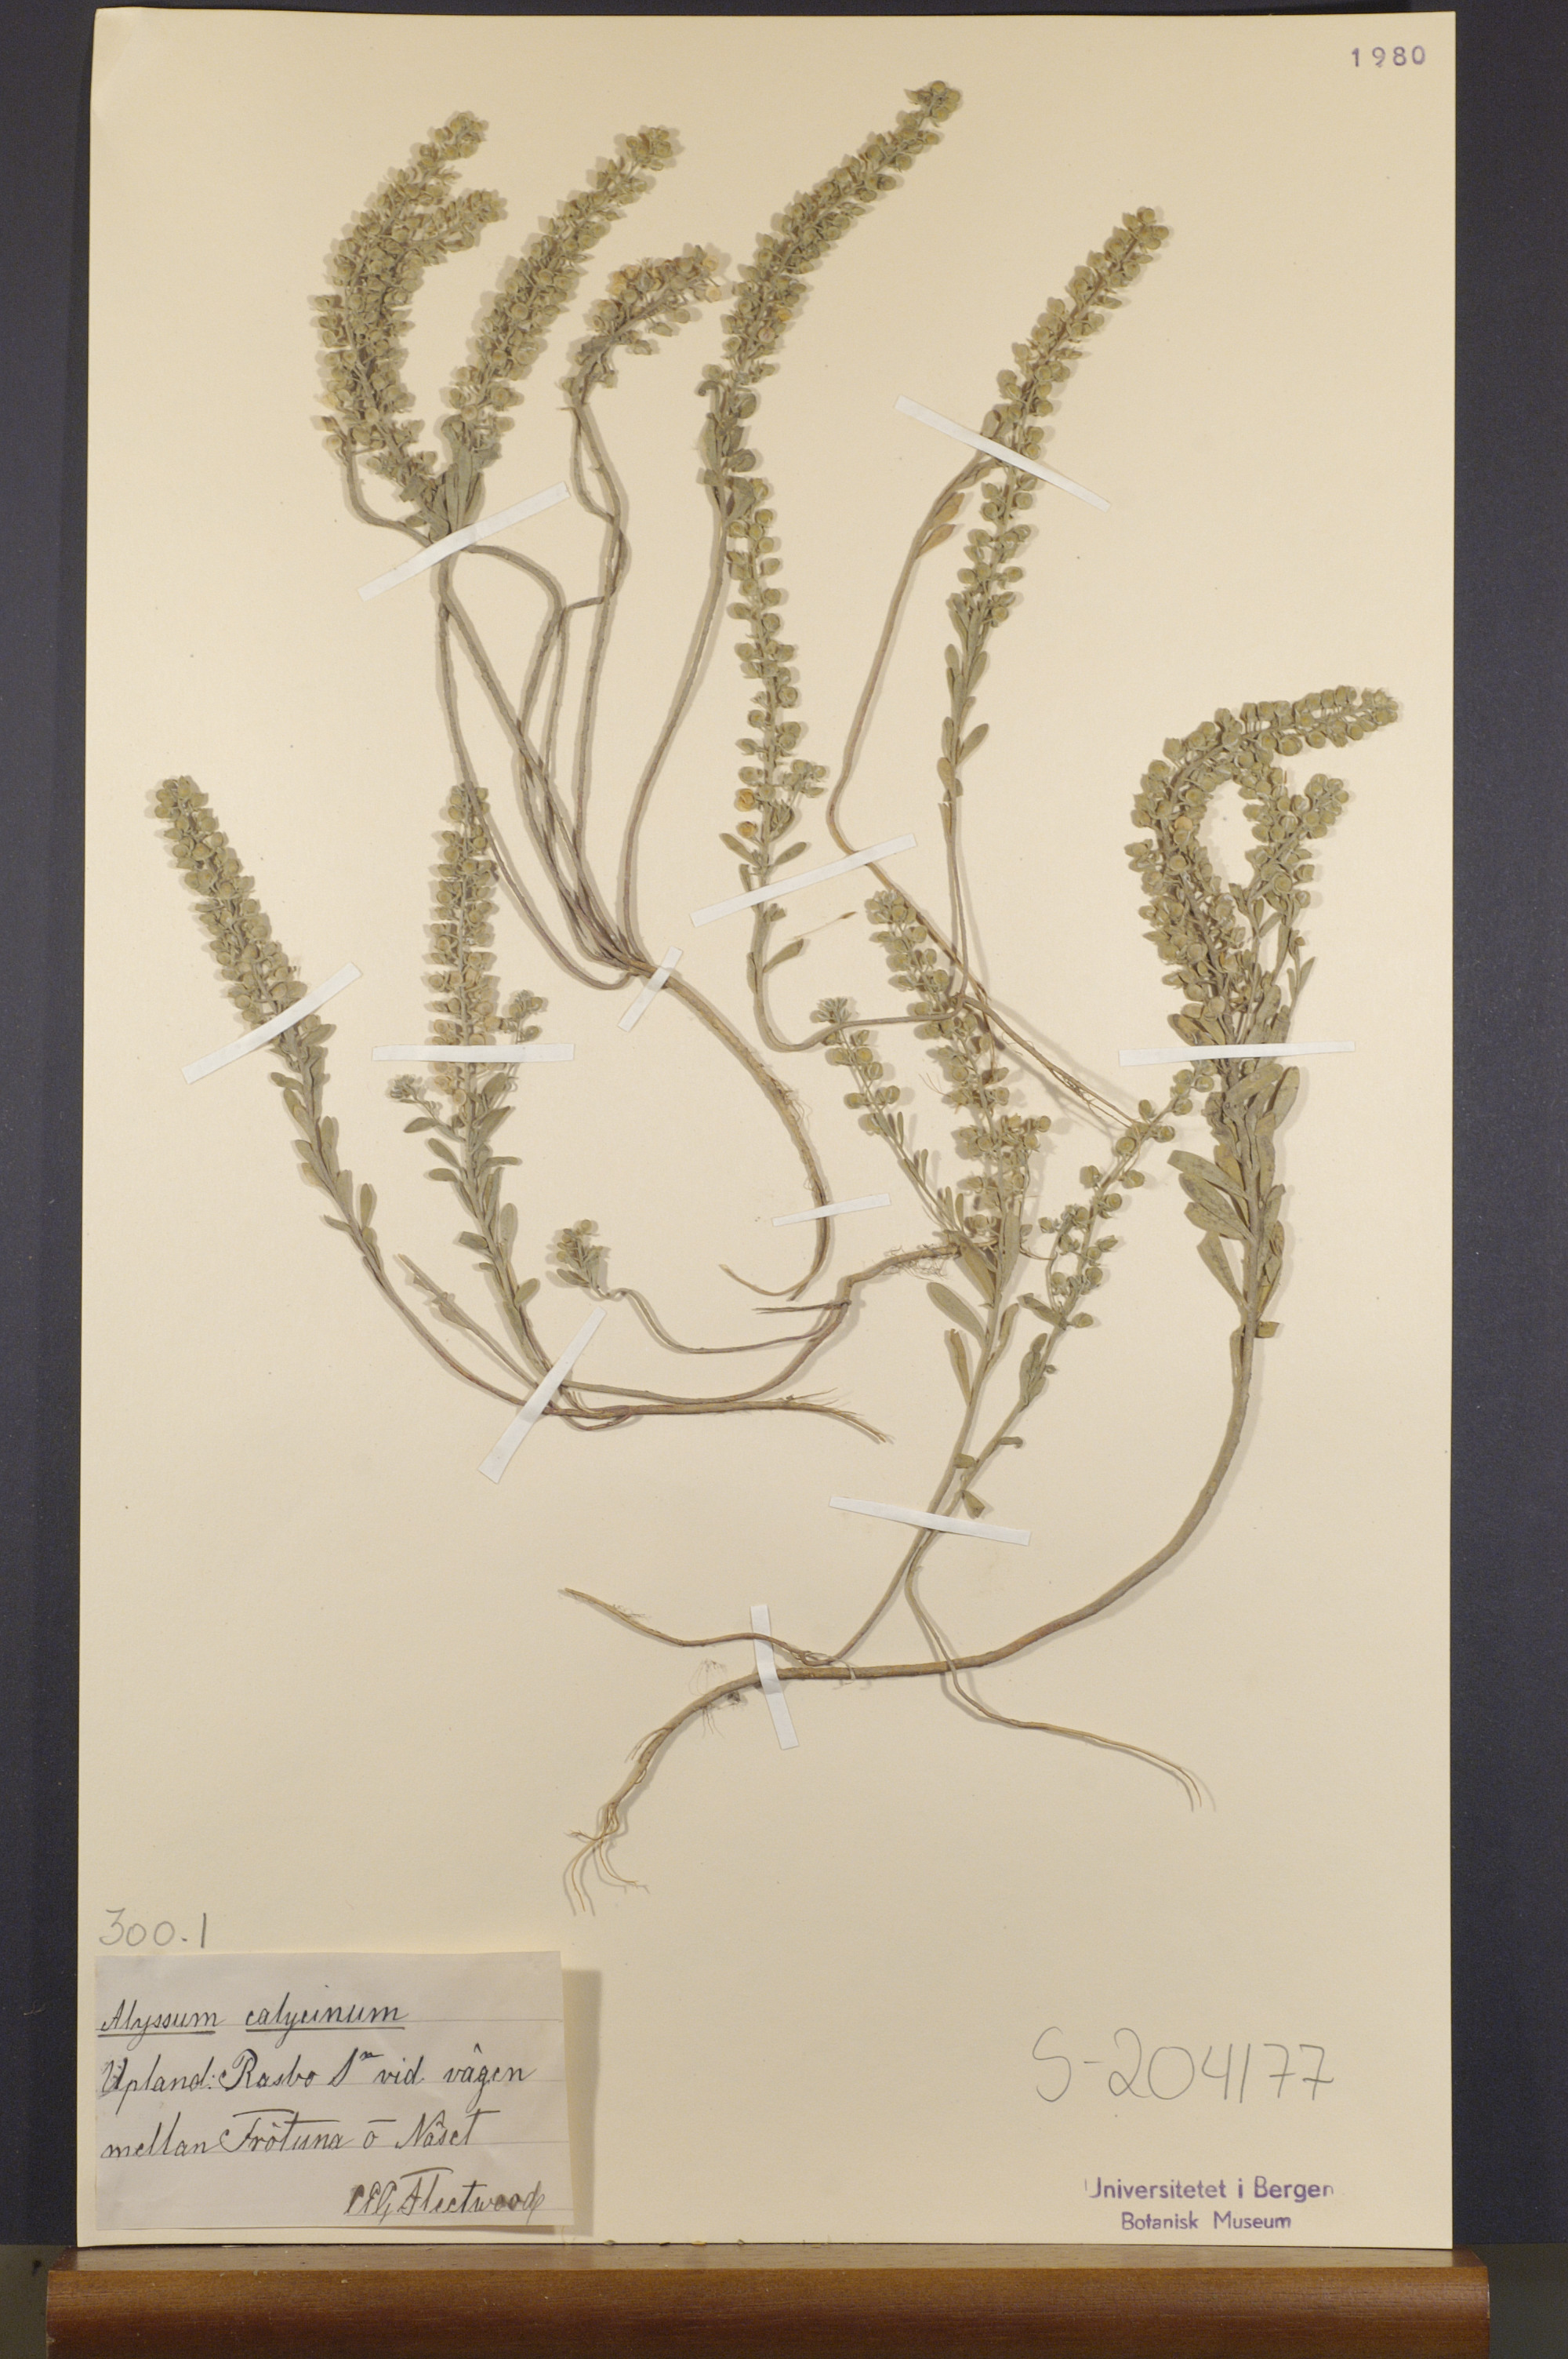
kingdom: Plantae
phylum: Tracheophyta
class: Magnoliopsida
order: Brassicales
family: Brassicaceae
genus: Alyssum
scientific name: Alyssum alyssoides
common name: Small alison
